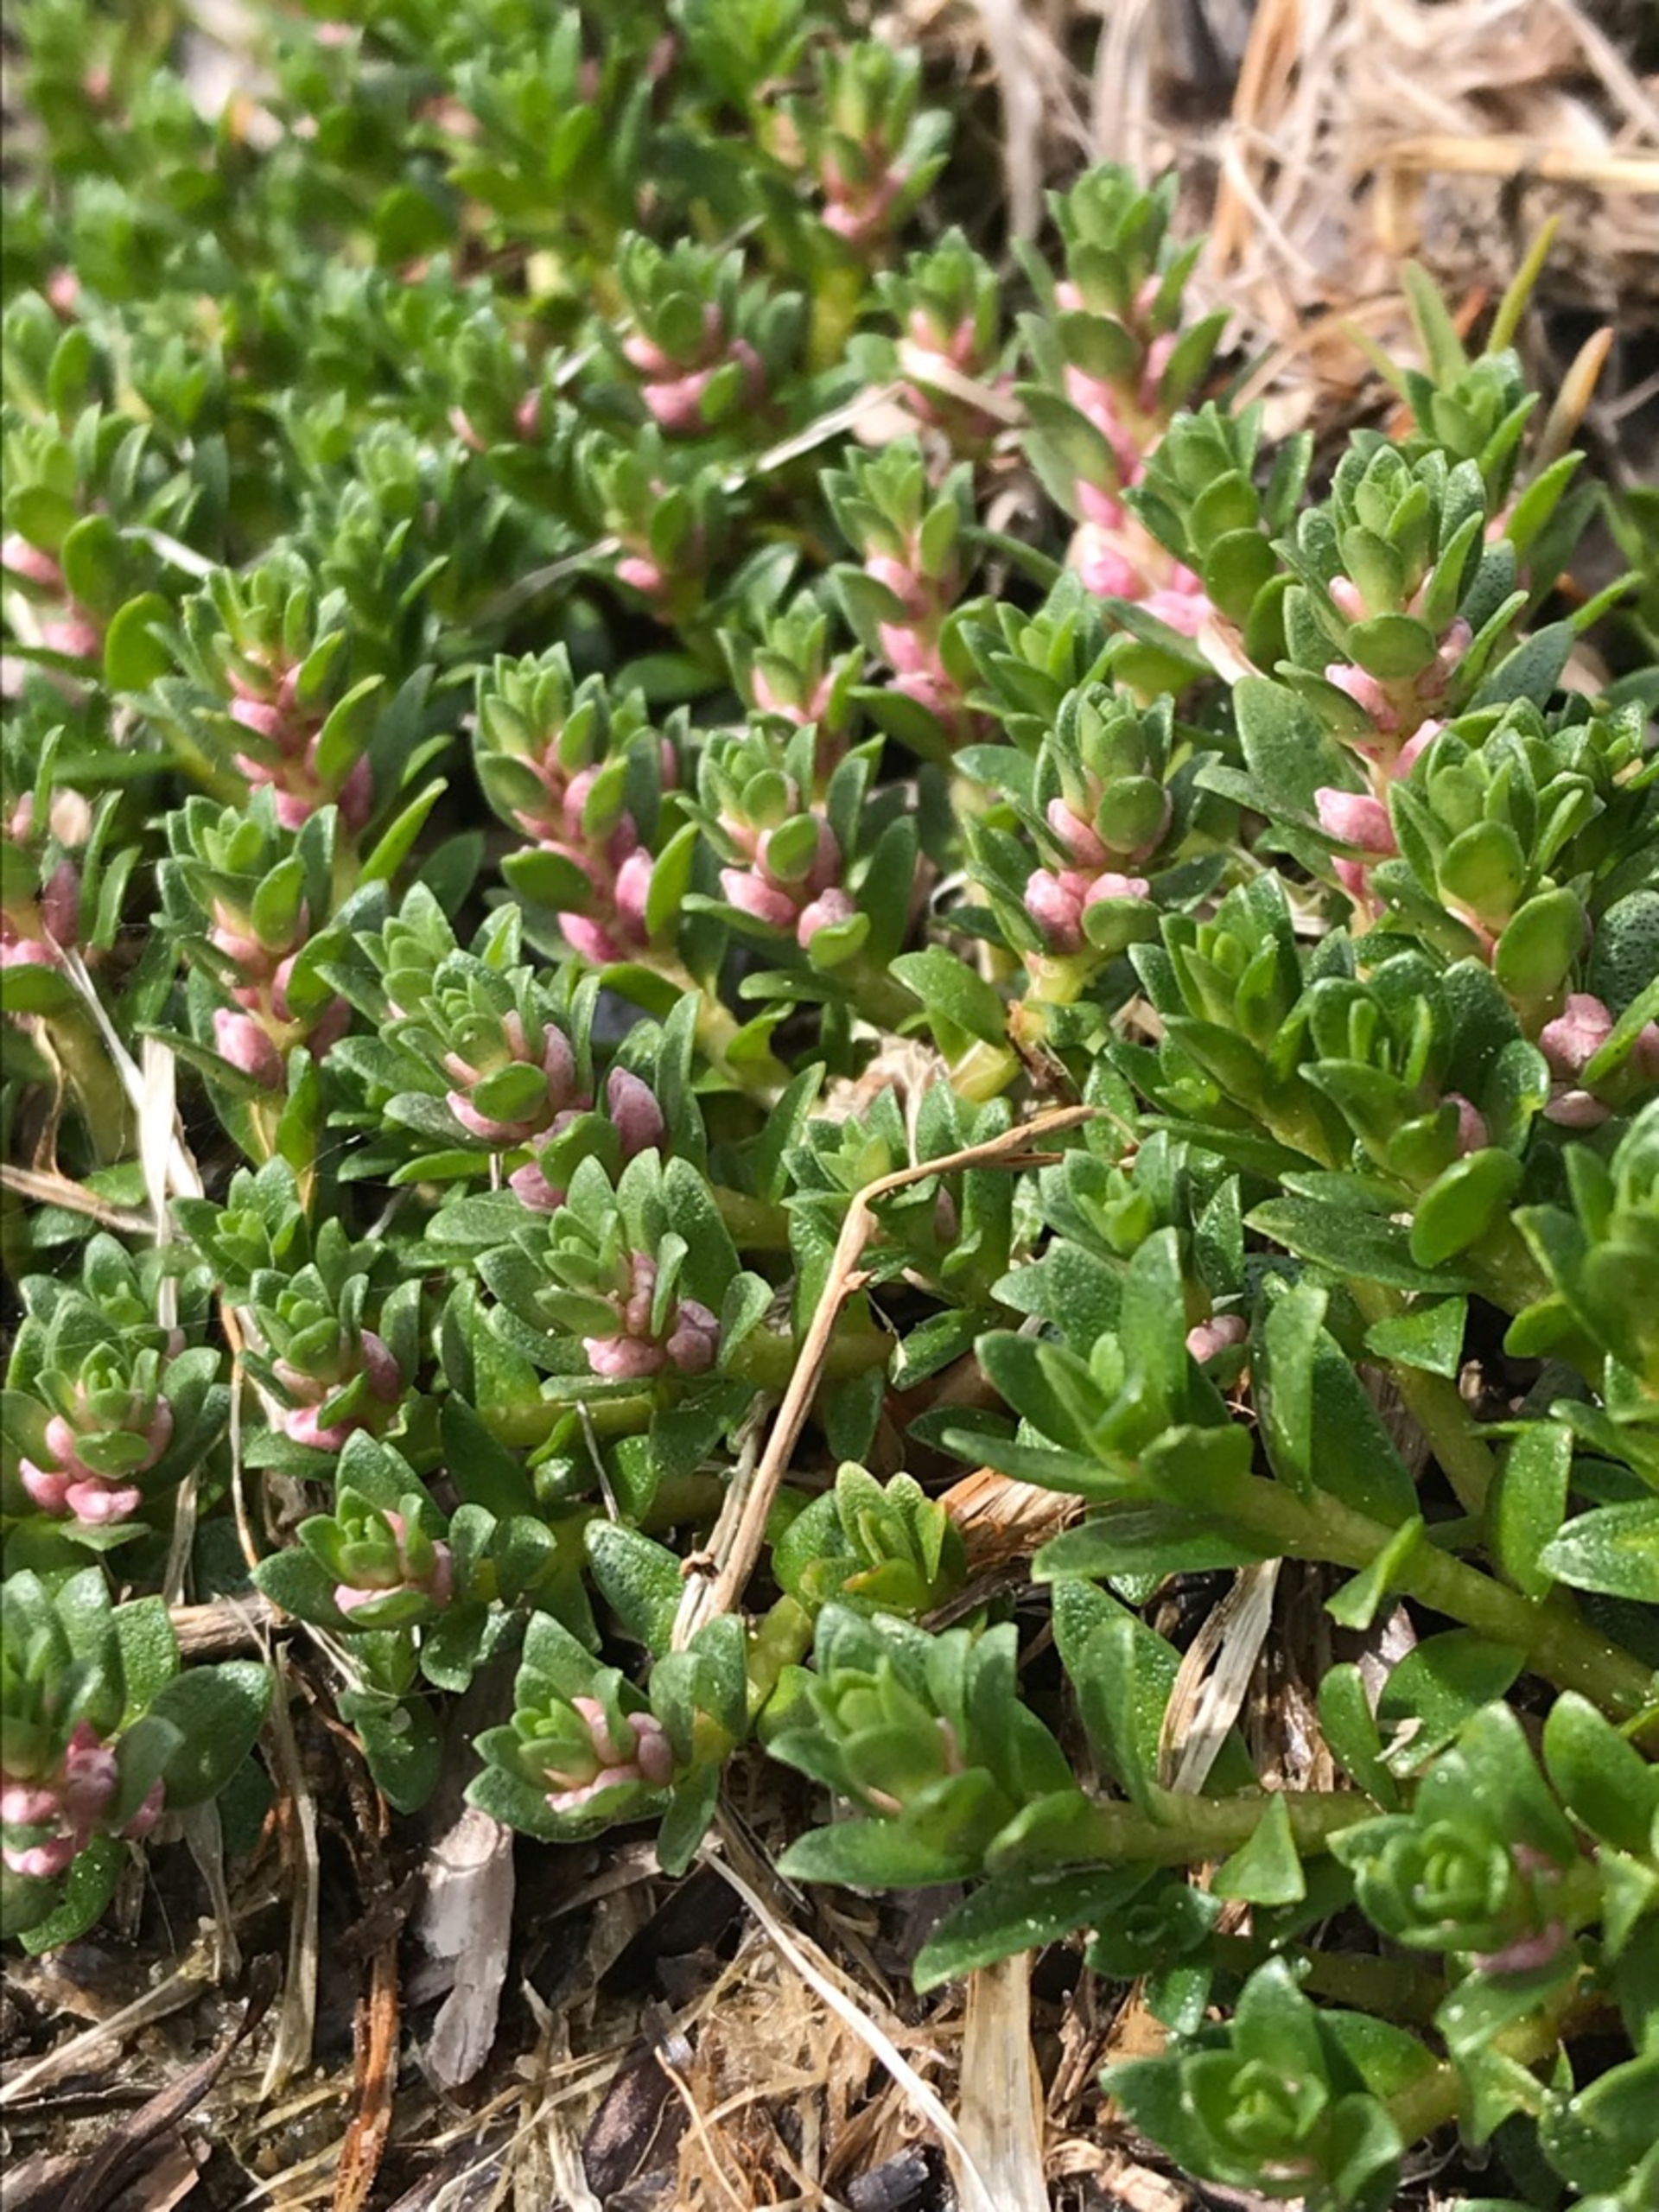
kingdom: Plantae
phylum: Tracheophyta
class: Magnoliopsida
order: Ericales
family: Primulaceae
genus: Lysimachia
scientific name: Lysimachia maritima
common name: Sandkryb
